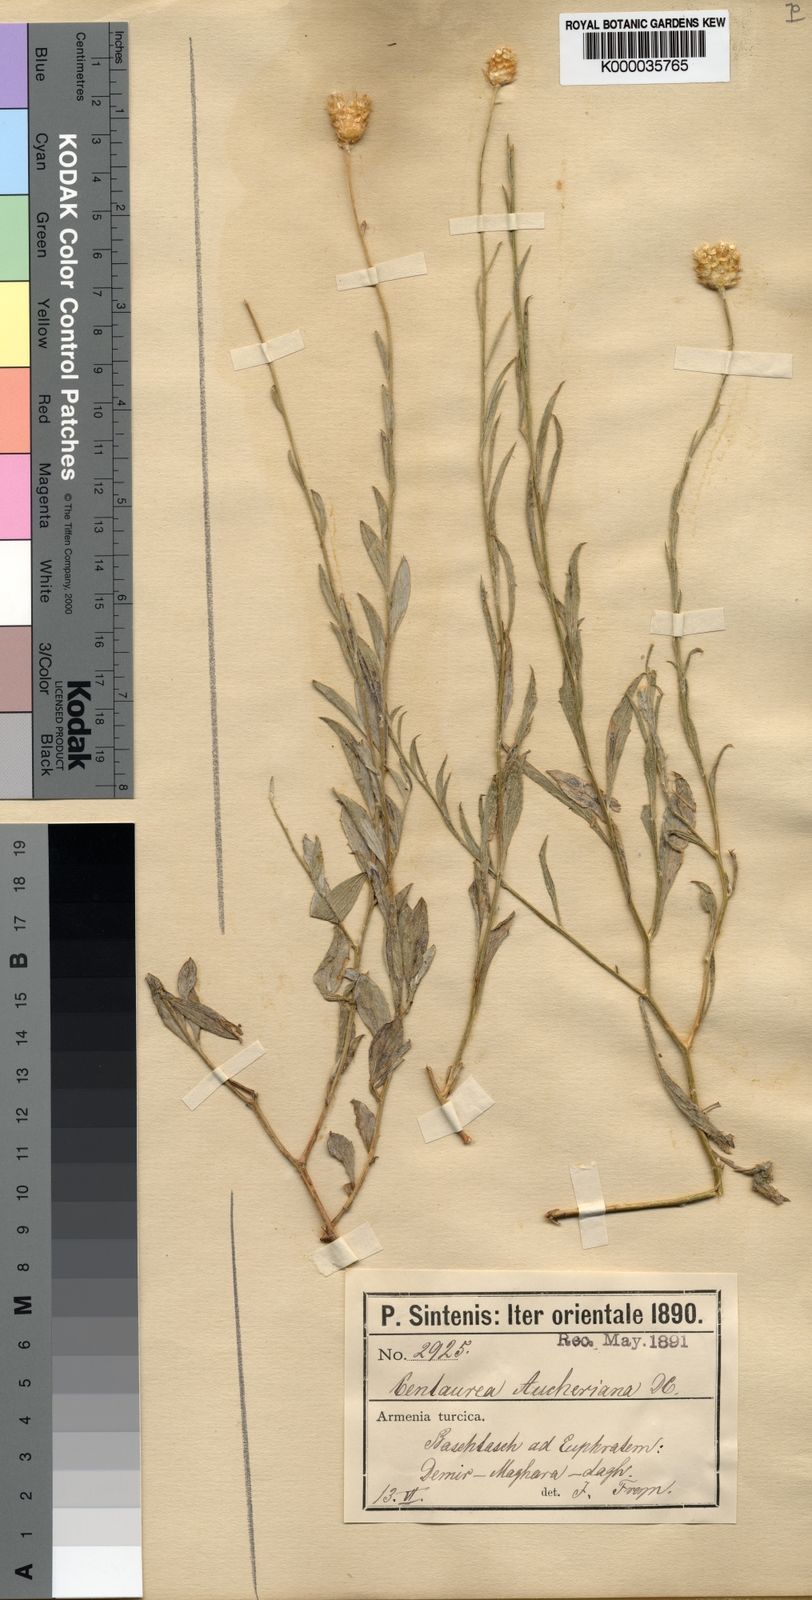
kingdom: Plantae
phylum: Tracheophyta
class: Magnoliopsida
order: Asterales
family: Asteraceae
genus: Centaurea
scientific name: Centaurea aucheri
